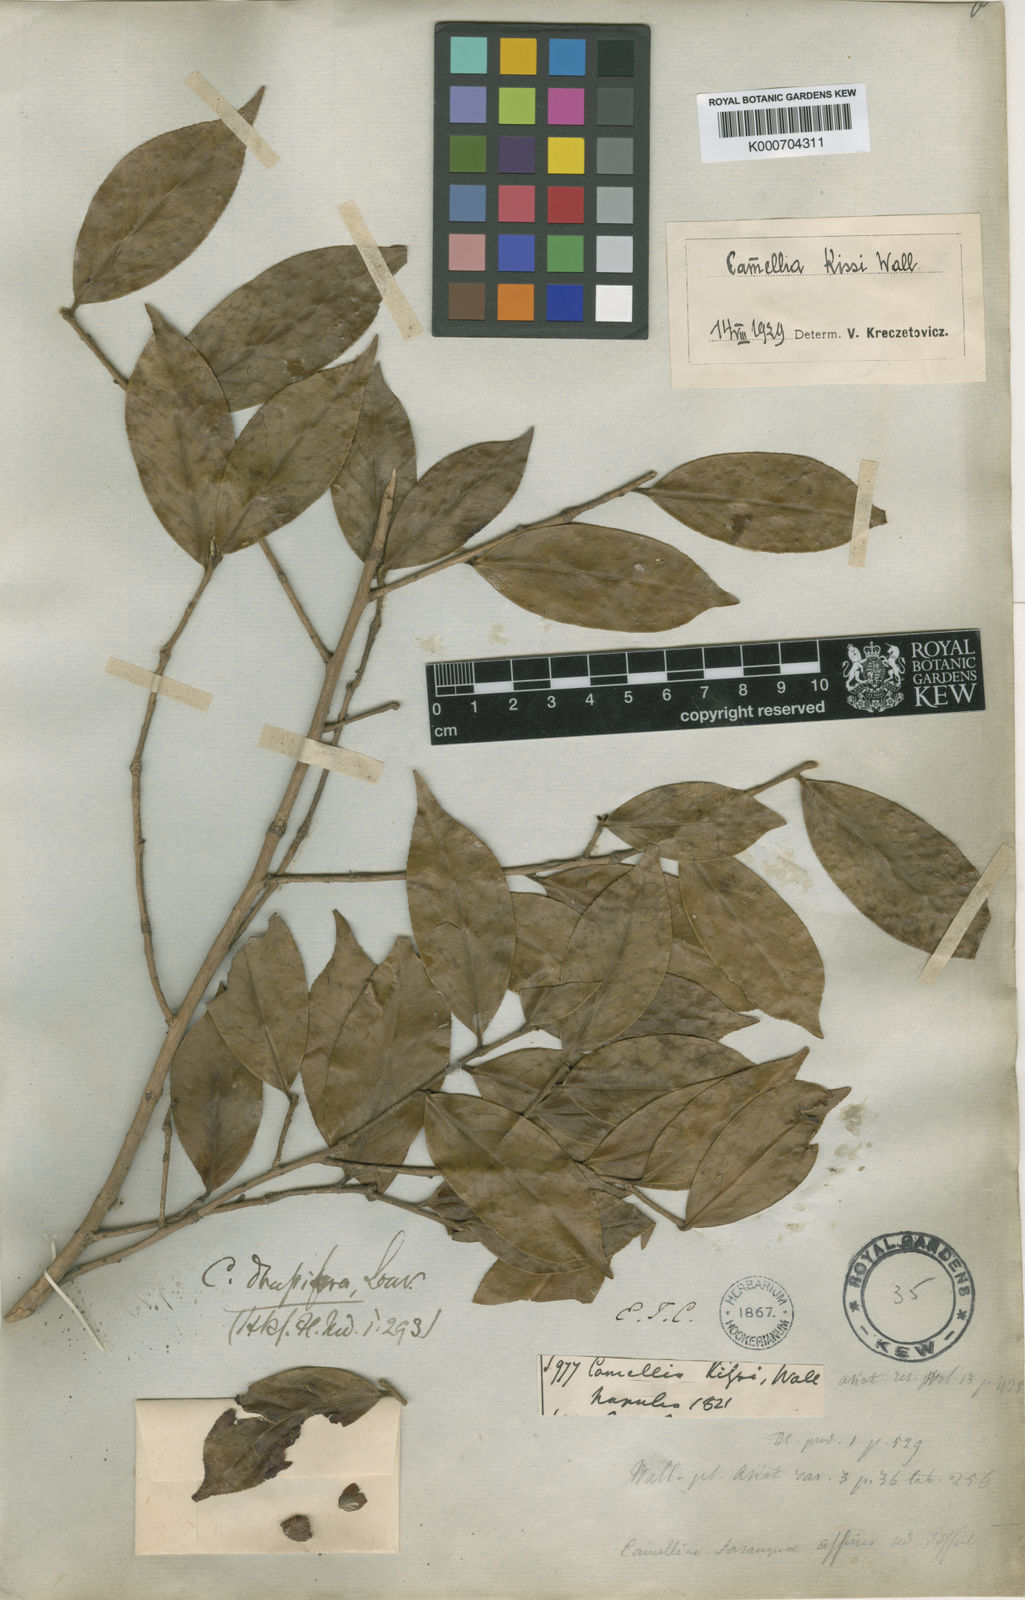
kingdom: Plantae
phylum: Tracheophyta
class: Magnoliopsida
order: Ericales
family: Theaceae
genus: Camellia
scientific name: Camellia kissii
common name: Nepal camellia
